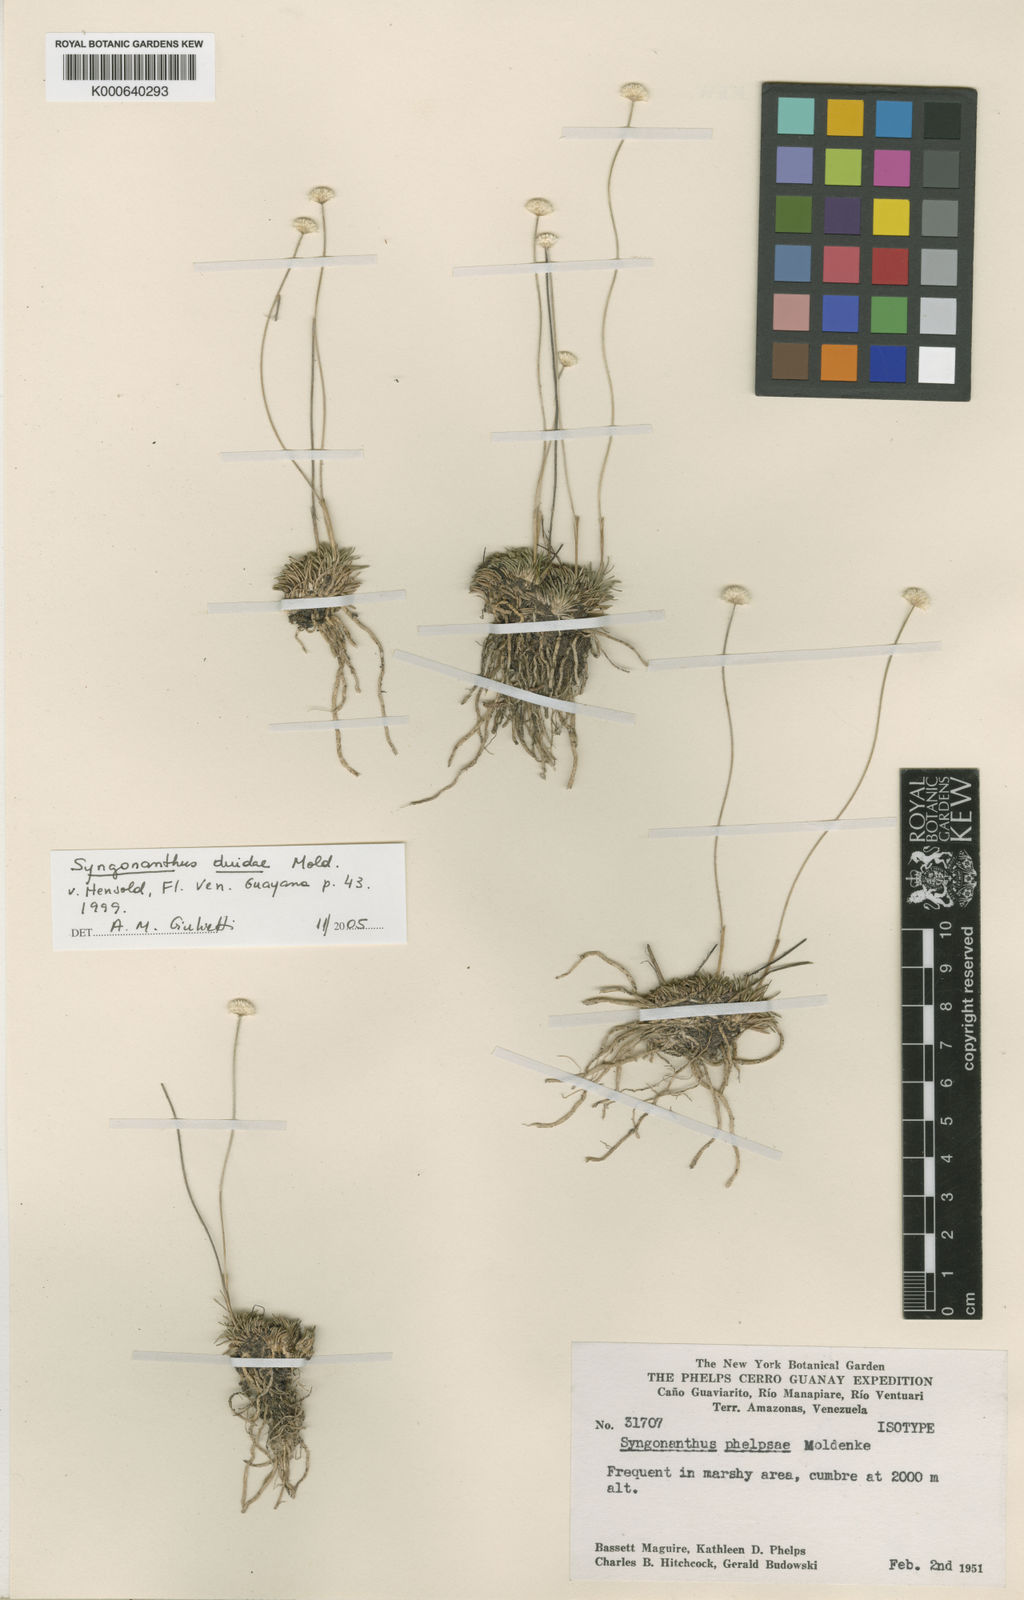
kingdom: Plantae
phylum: Tracheophyta
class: Liliopsida
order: Poales
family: Eriocaulaceae
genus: Syngonanthus
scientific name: Syngonanthus duidae
